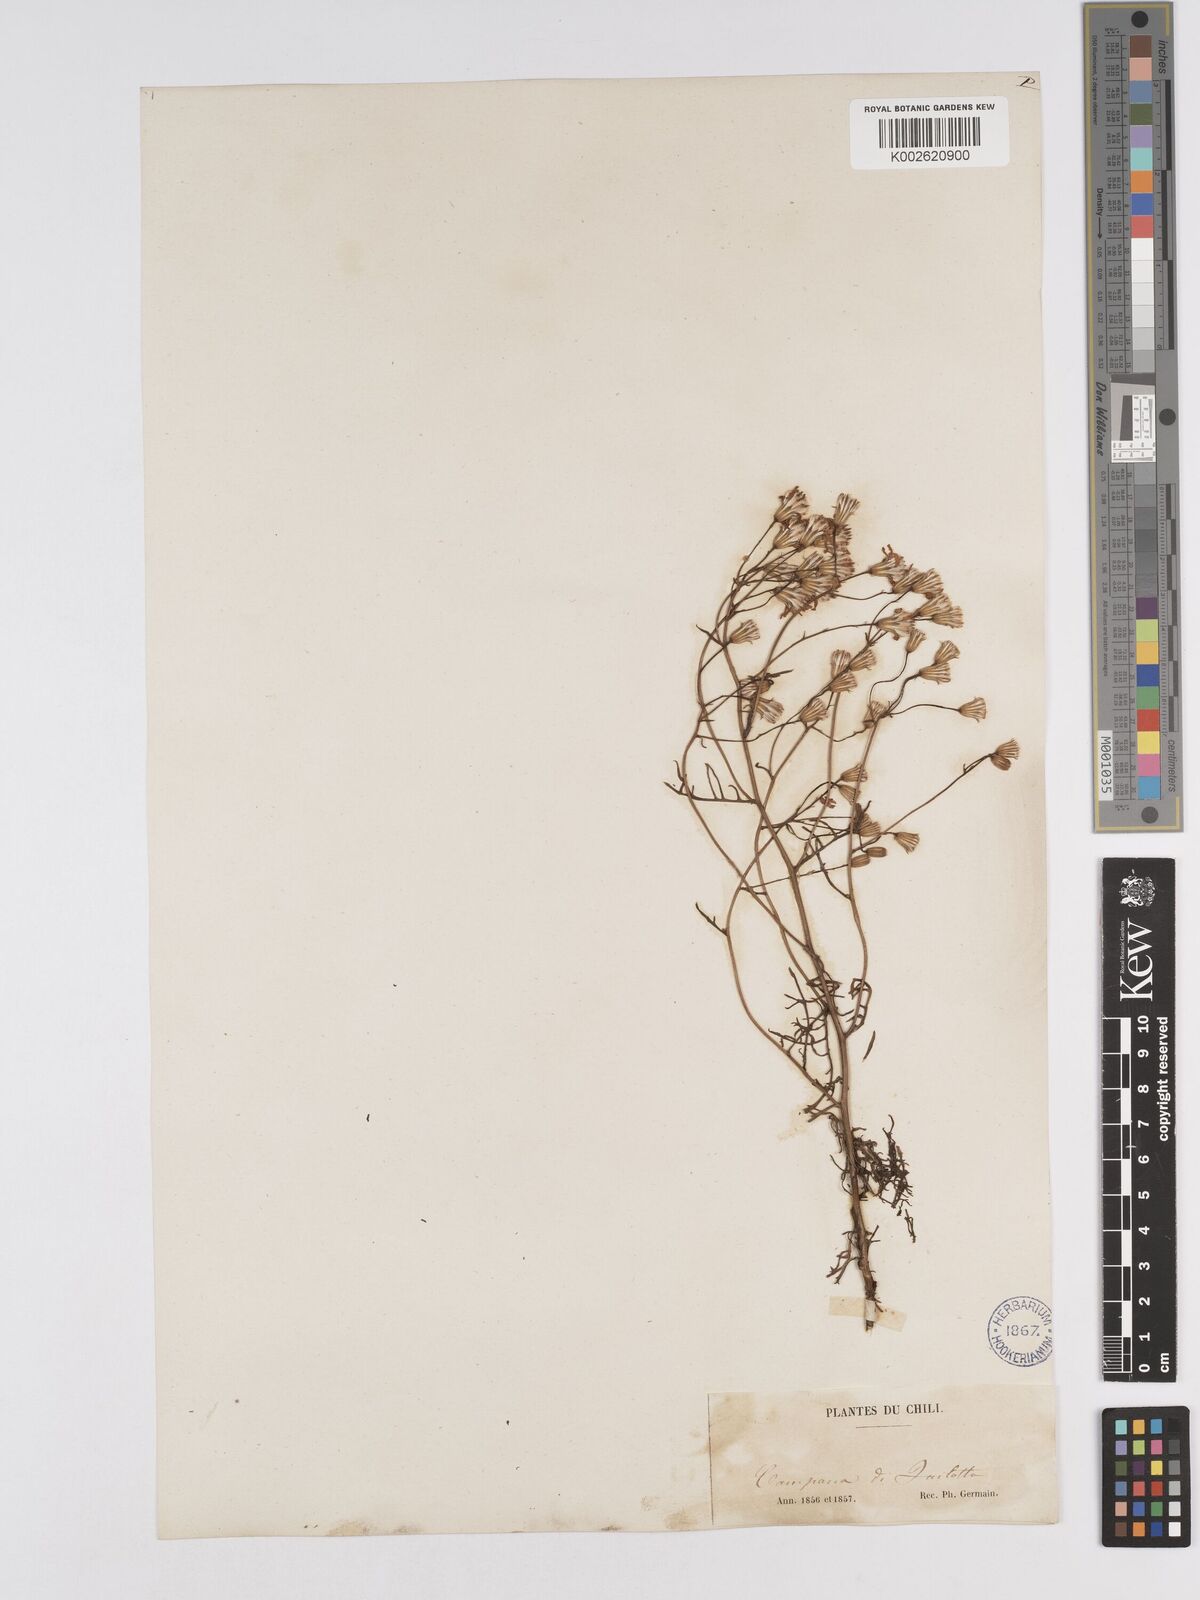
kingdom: Plantae
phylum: Tracheophyta
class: Magnoliopsida
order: Asterales
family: Asteraceae
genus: Senecio
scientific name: Senecio glaber
